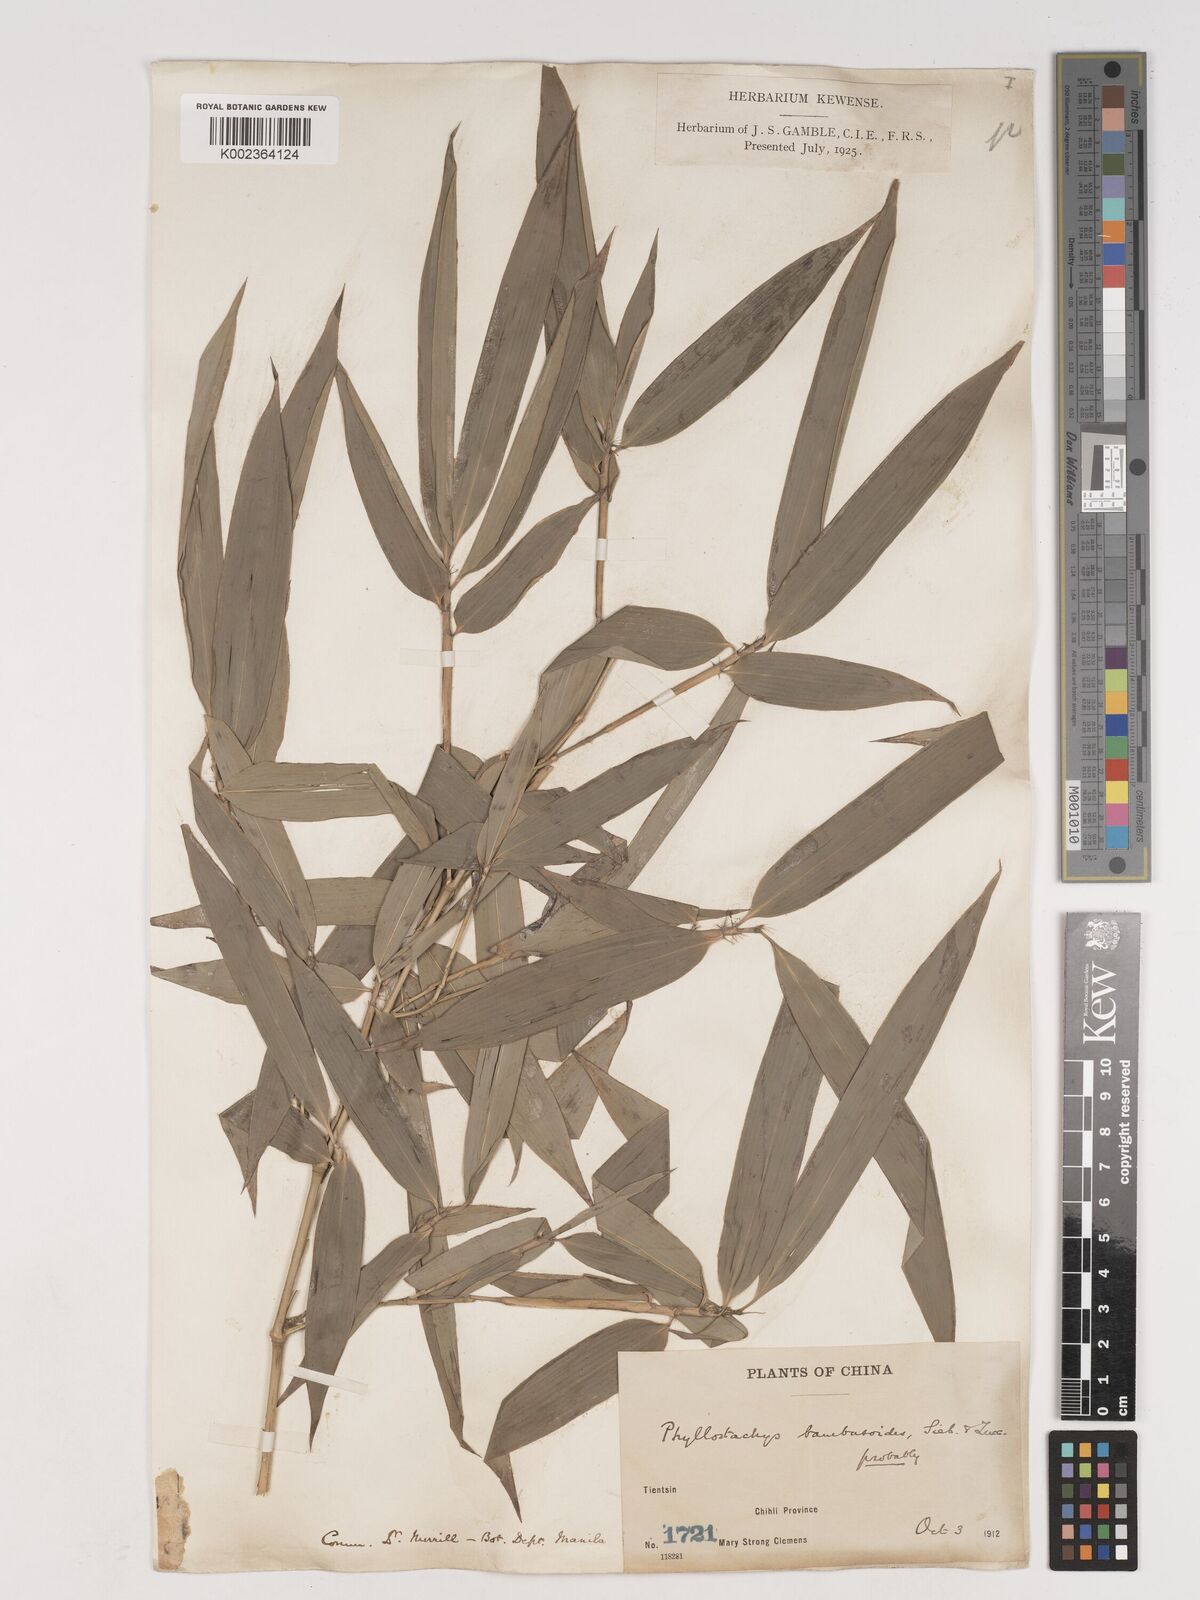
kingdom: Plantae
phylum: Tracheophyta
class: Liliopsida
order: Poales
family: Poaceae
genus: Phyllostachys
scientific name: Phyllostachys reticulata
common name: Bamboo
